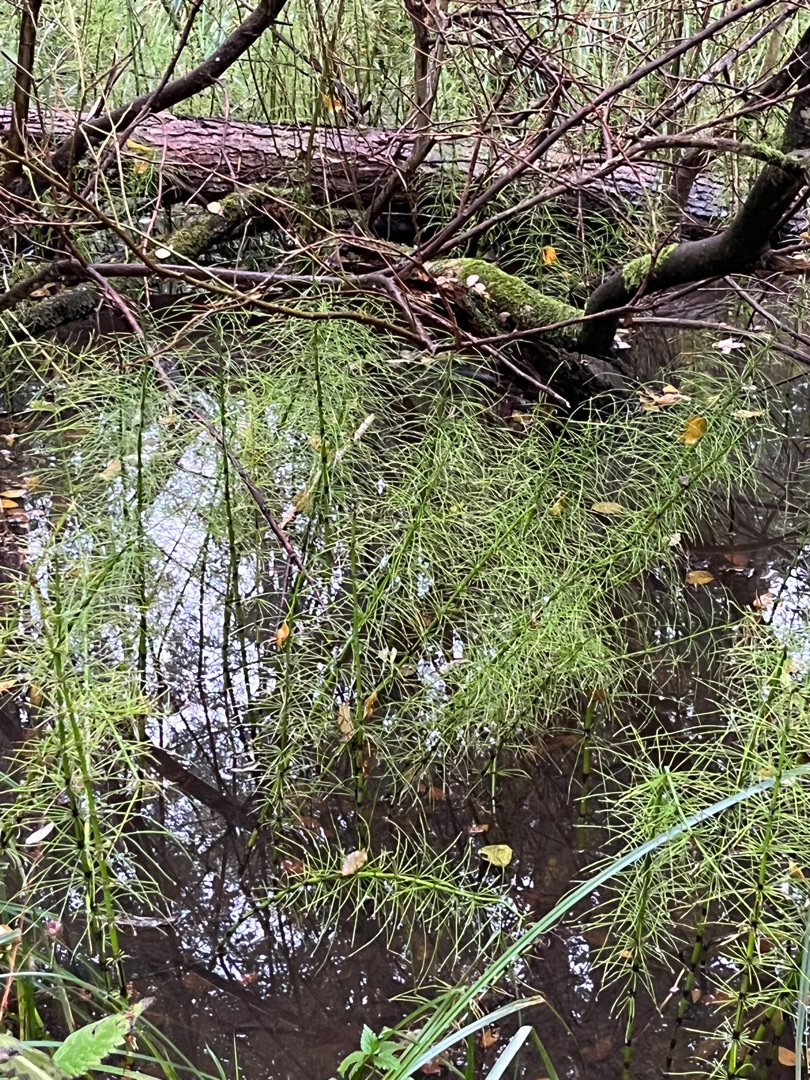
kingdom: Plantae
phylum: Tracheophyta
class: Polypodiopsida
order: Equisetales
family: Equisetaceae
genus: Equisetum
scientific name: Equisetum fluviatile
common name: Dynd-padderok
